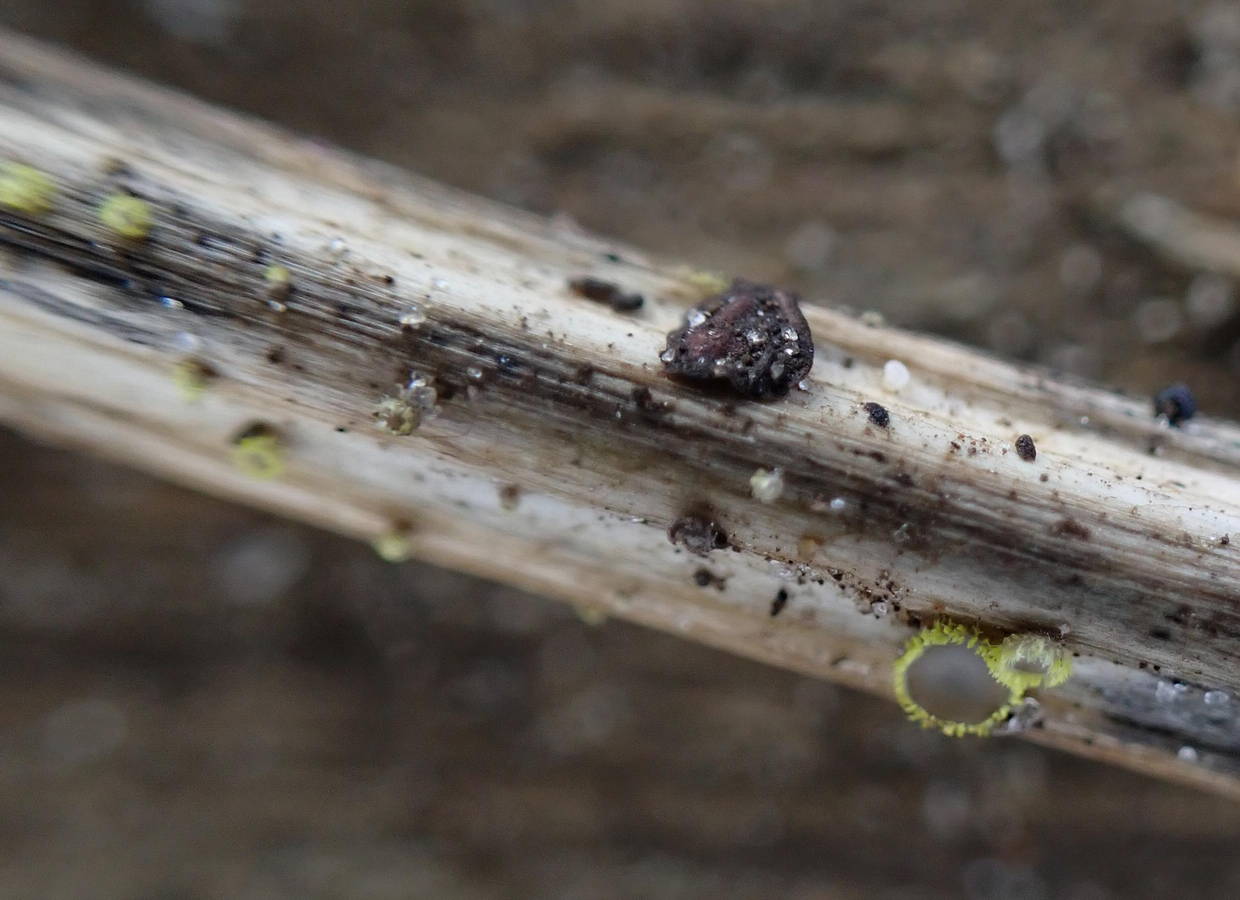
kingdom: Fungi
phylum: Ascomycota
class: Leotiomycetes
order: Helotiales
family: Lachnaceae
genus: Trichopeziza
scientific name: Trichopeziza
